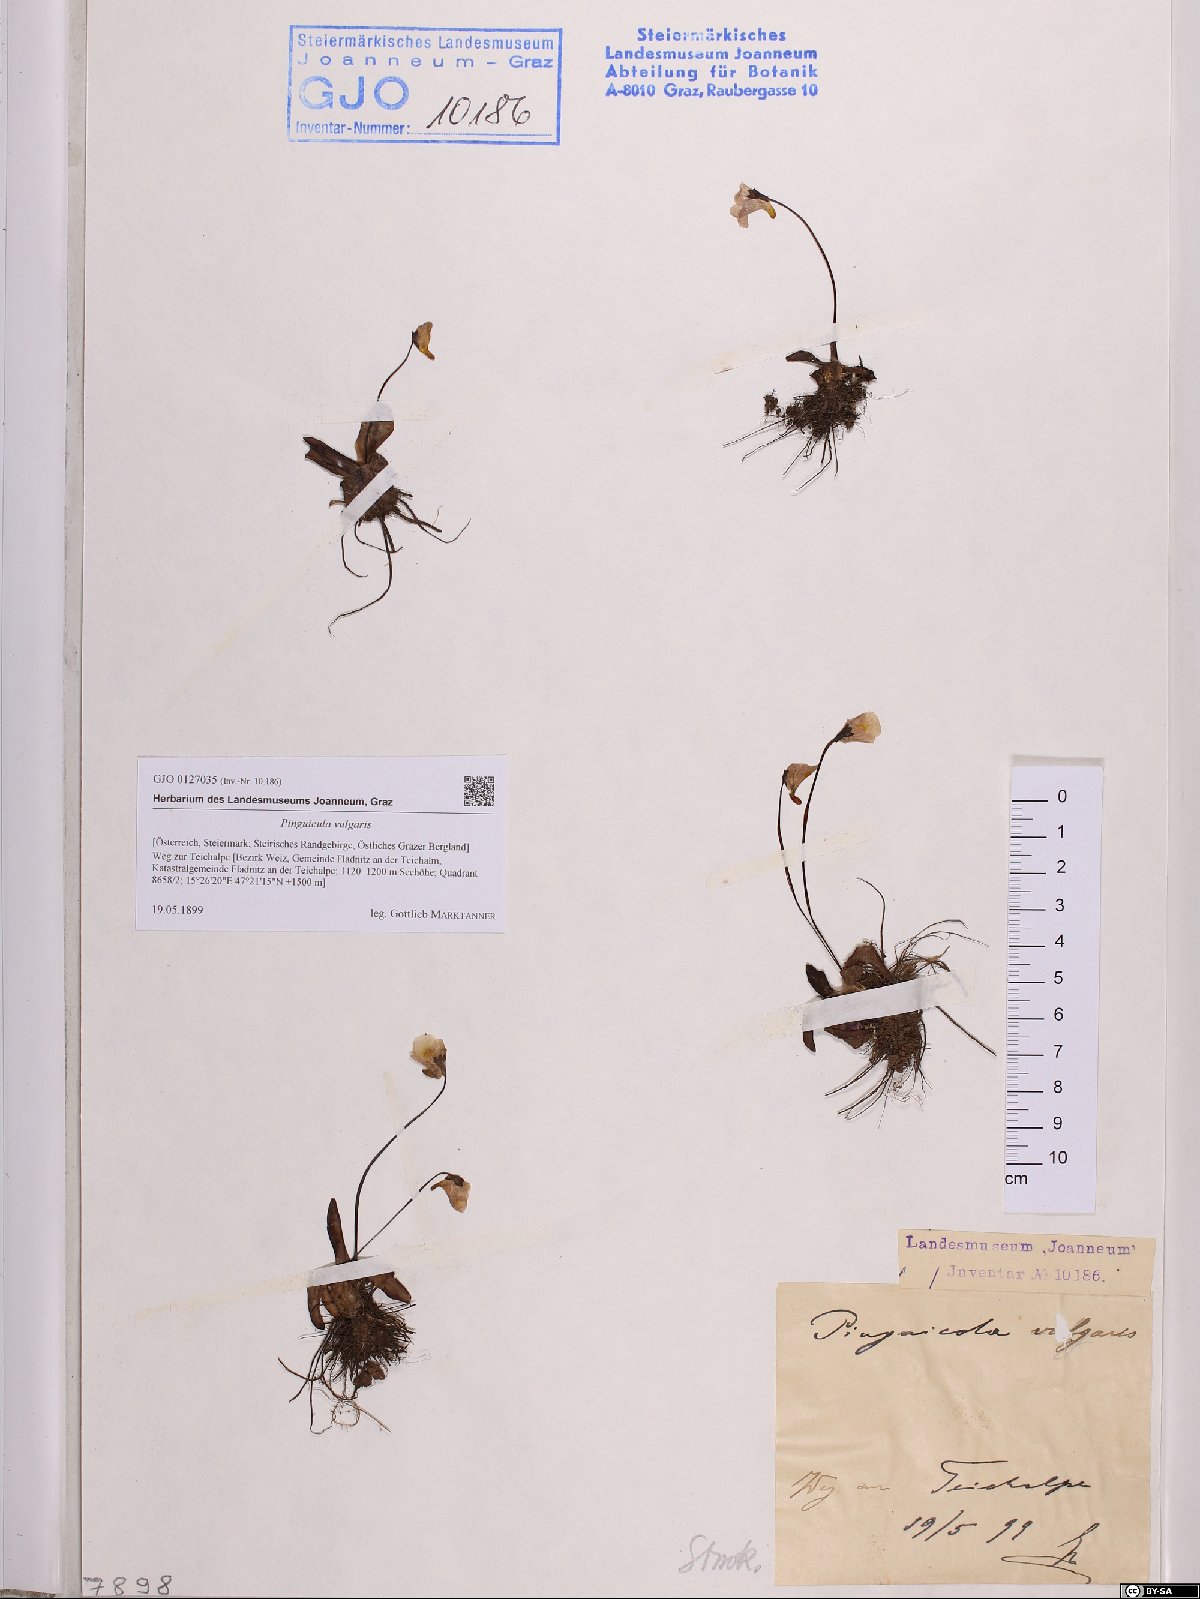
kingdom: Plantae
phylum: Tracheophyta
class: Magnoliopsida
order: Lamiales
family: Lentibulariaceae
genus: Pinguicula
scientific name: Pinguicula vulgaris
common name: Common butterwort
